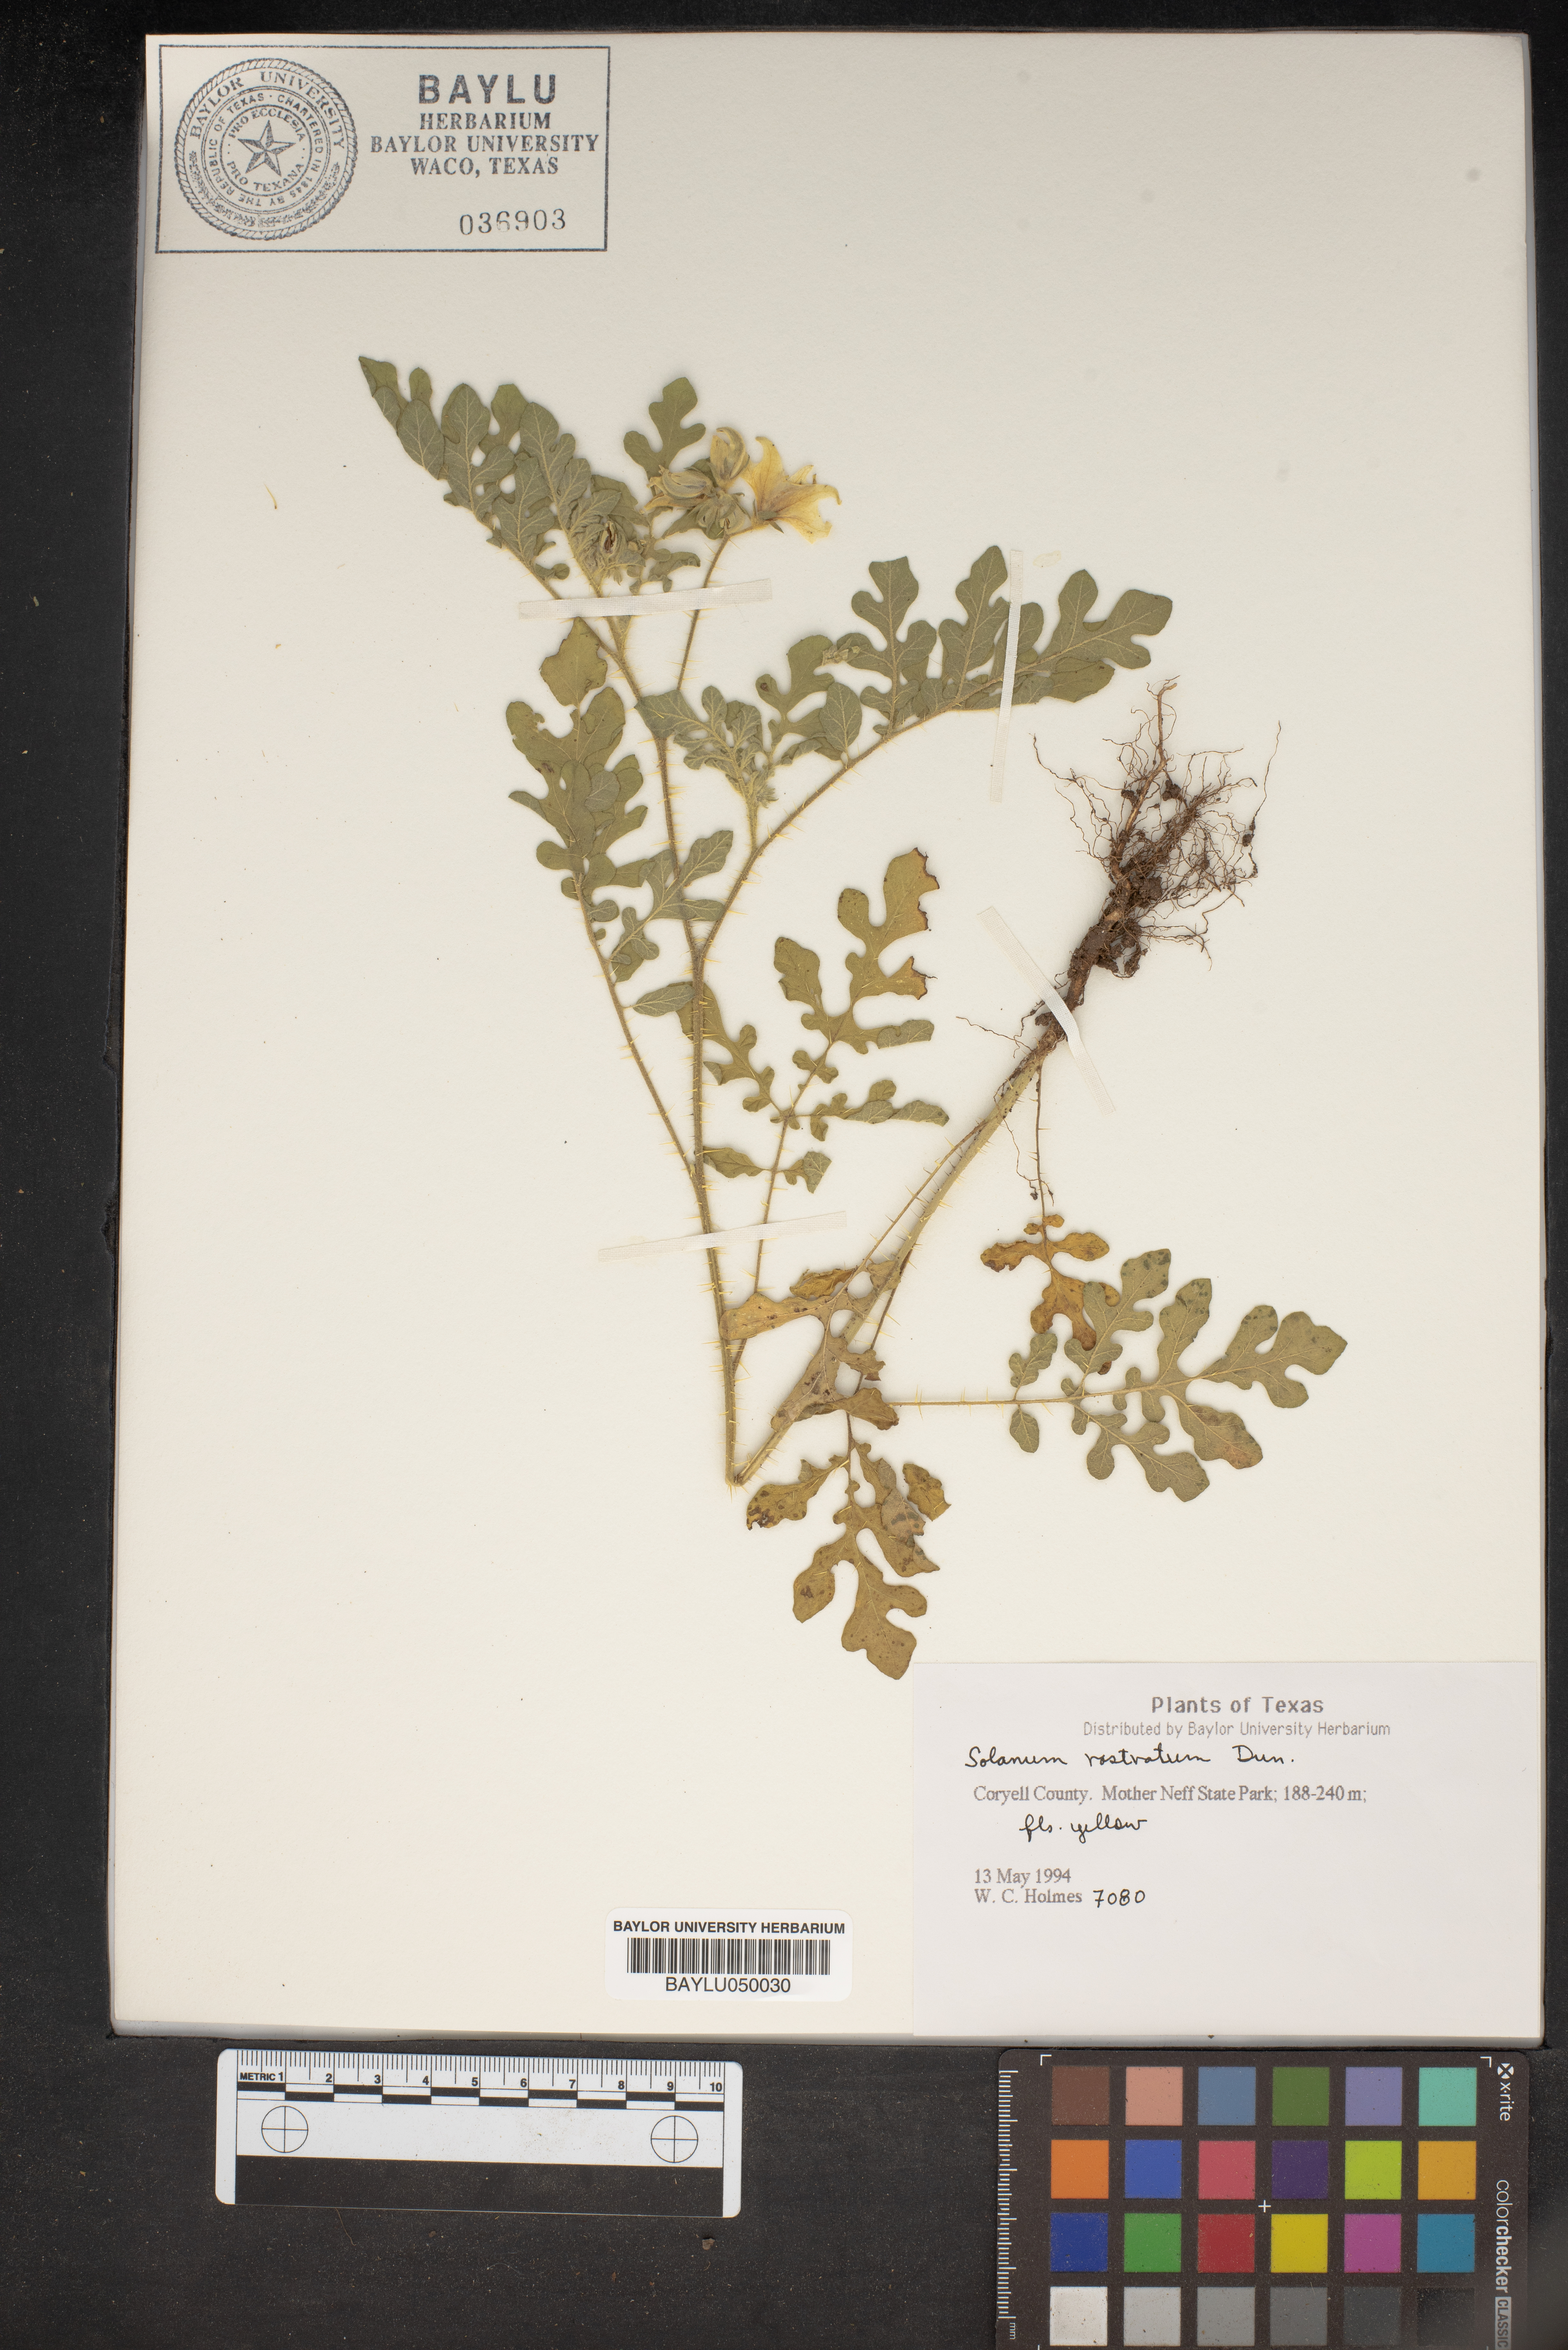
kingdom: Plantae
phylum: Tracheophyta
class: Magnoliopsida
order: Solanales
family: Solanaceae
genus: Solanum
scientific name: Solanum angustifolium
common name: Buffalobur nightshade
